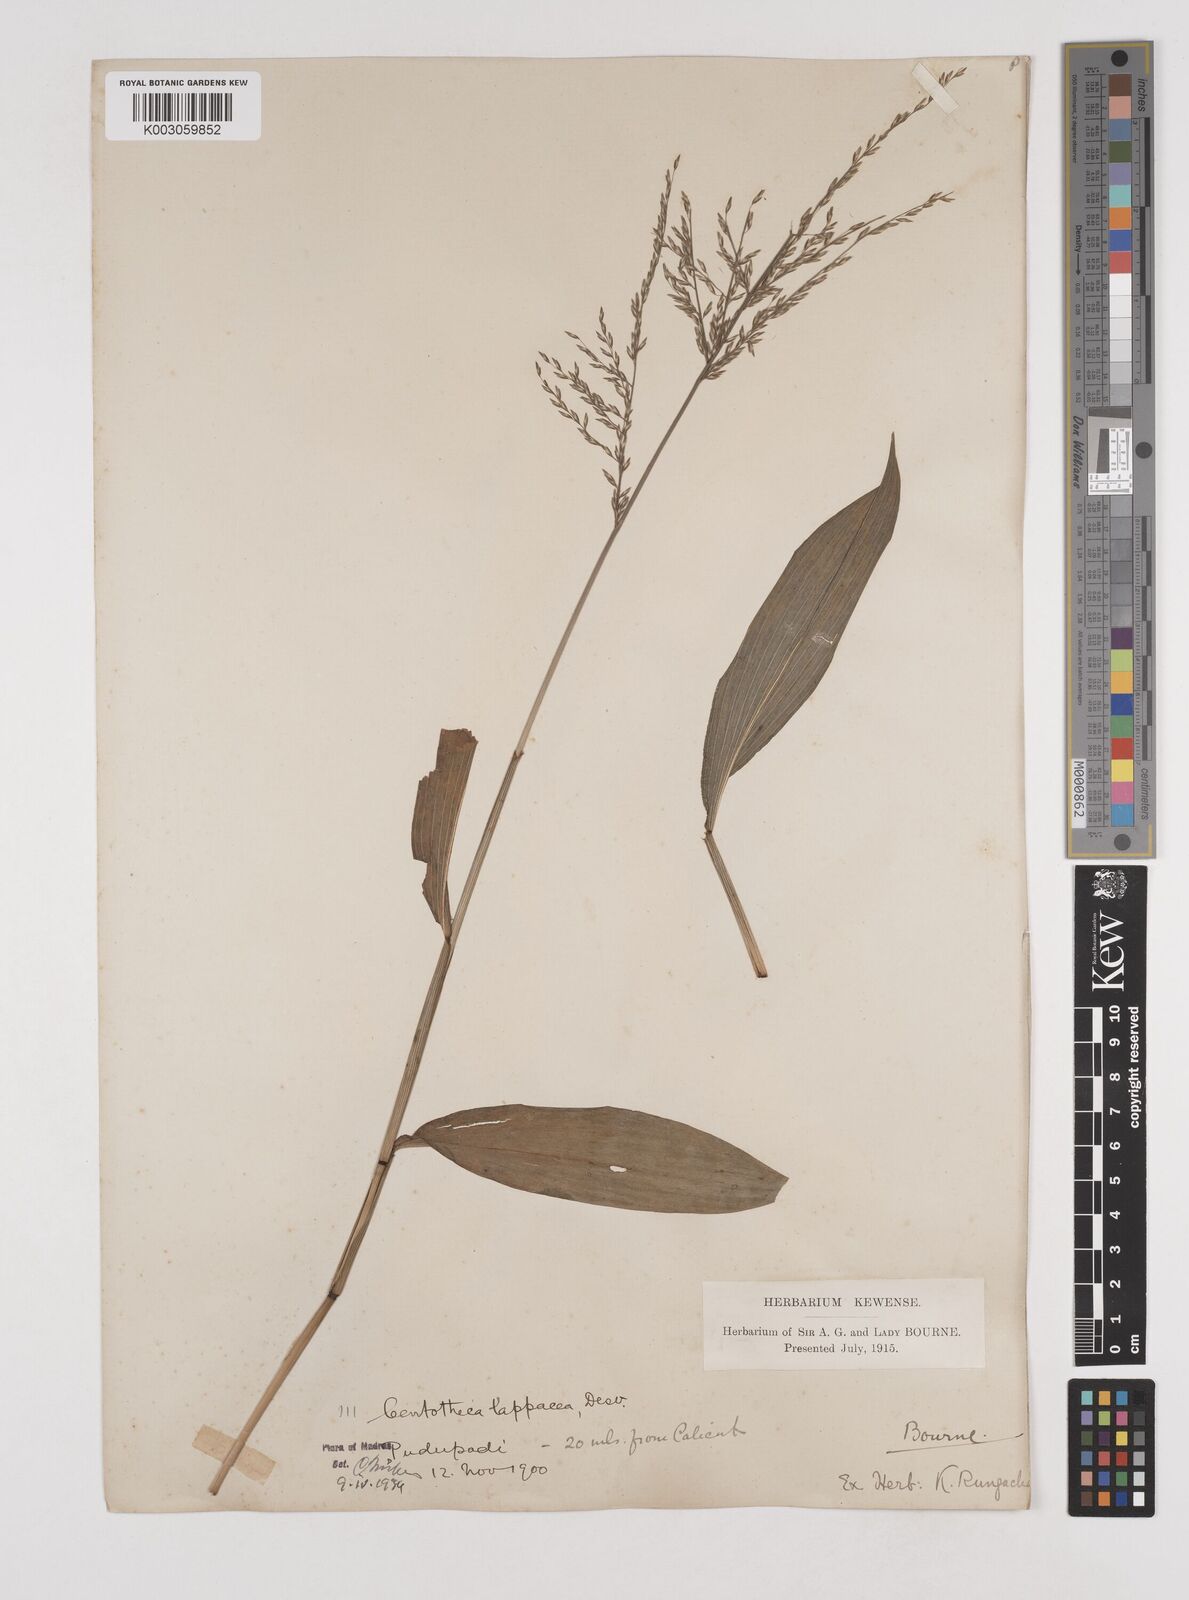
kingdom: Plantae
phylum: Tracheophyta
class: Liliopsida
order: Poales
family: Poaceae
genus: Centotheca
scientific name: Centotheca lappacea
